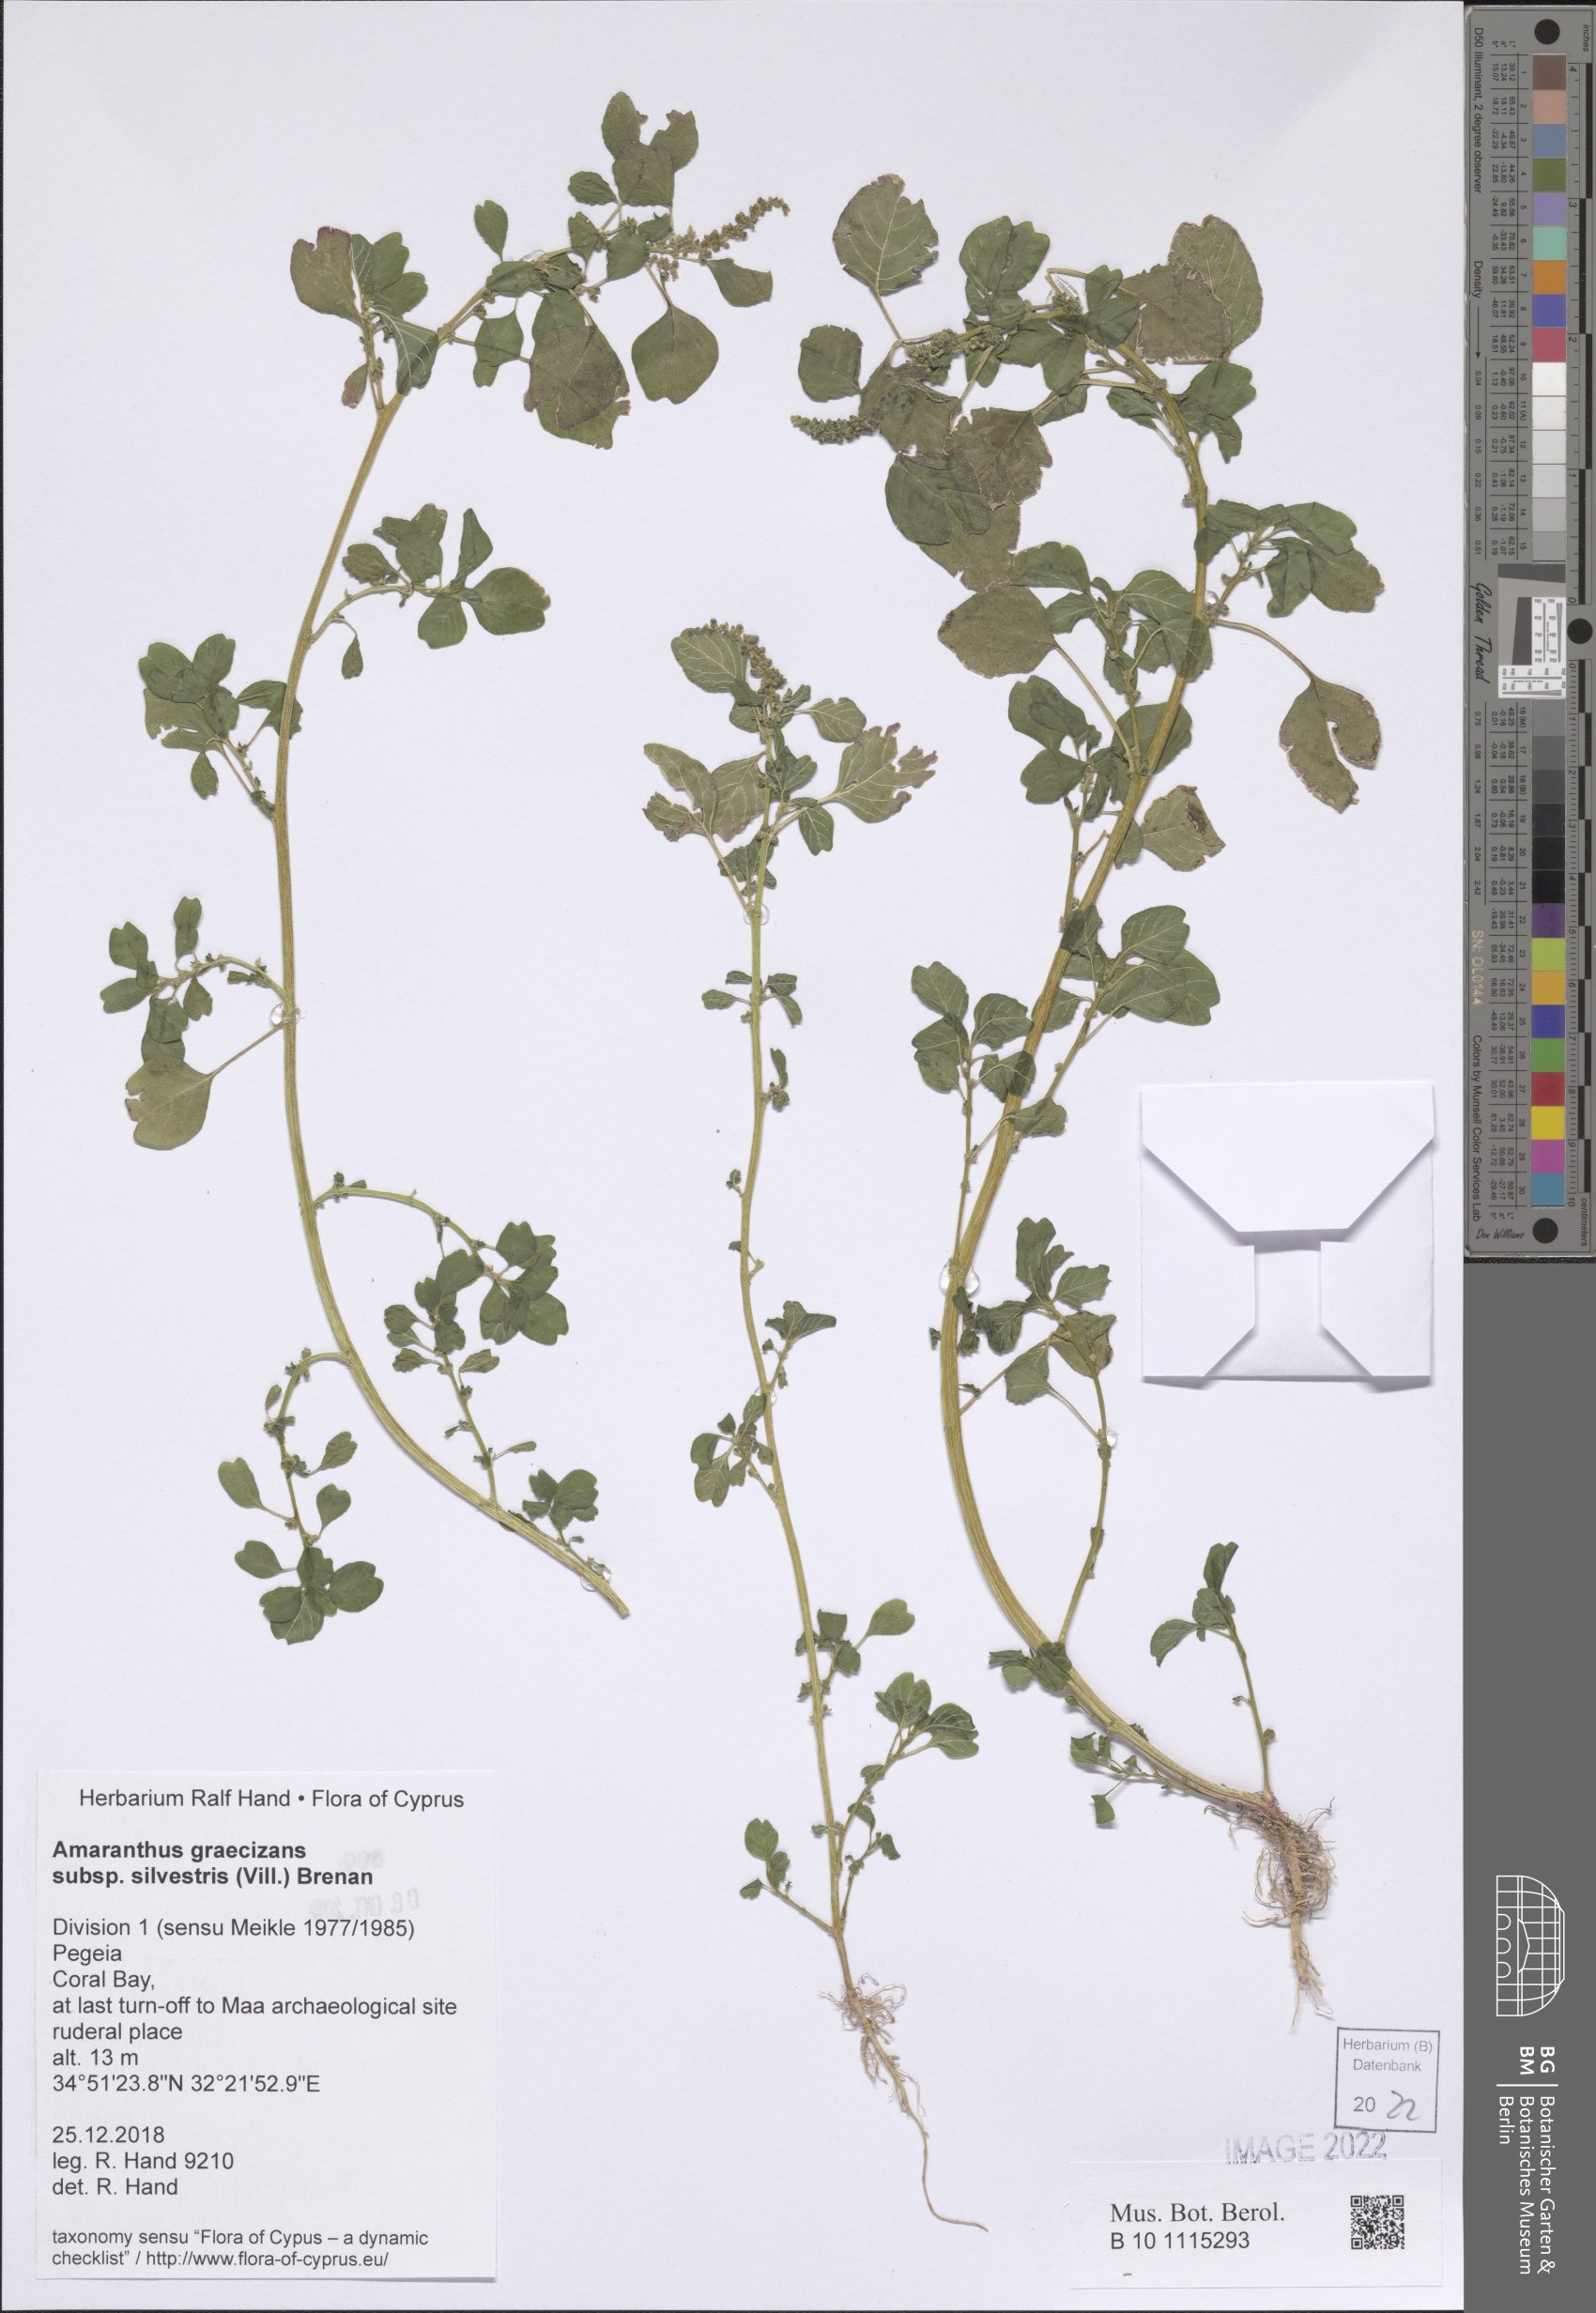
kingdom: Plantae
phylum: Tracheophyta
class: Magnoliopsida
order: Caryophyllales
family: Amaranthaceae
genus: Amaranthus
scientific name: Amaranthus graecizans
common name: Mediterranean amaranth
